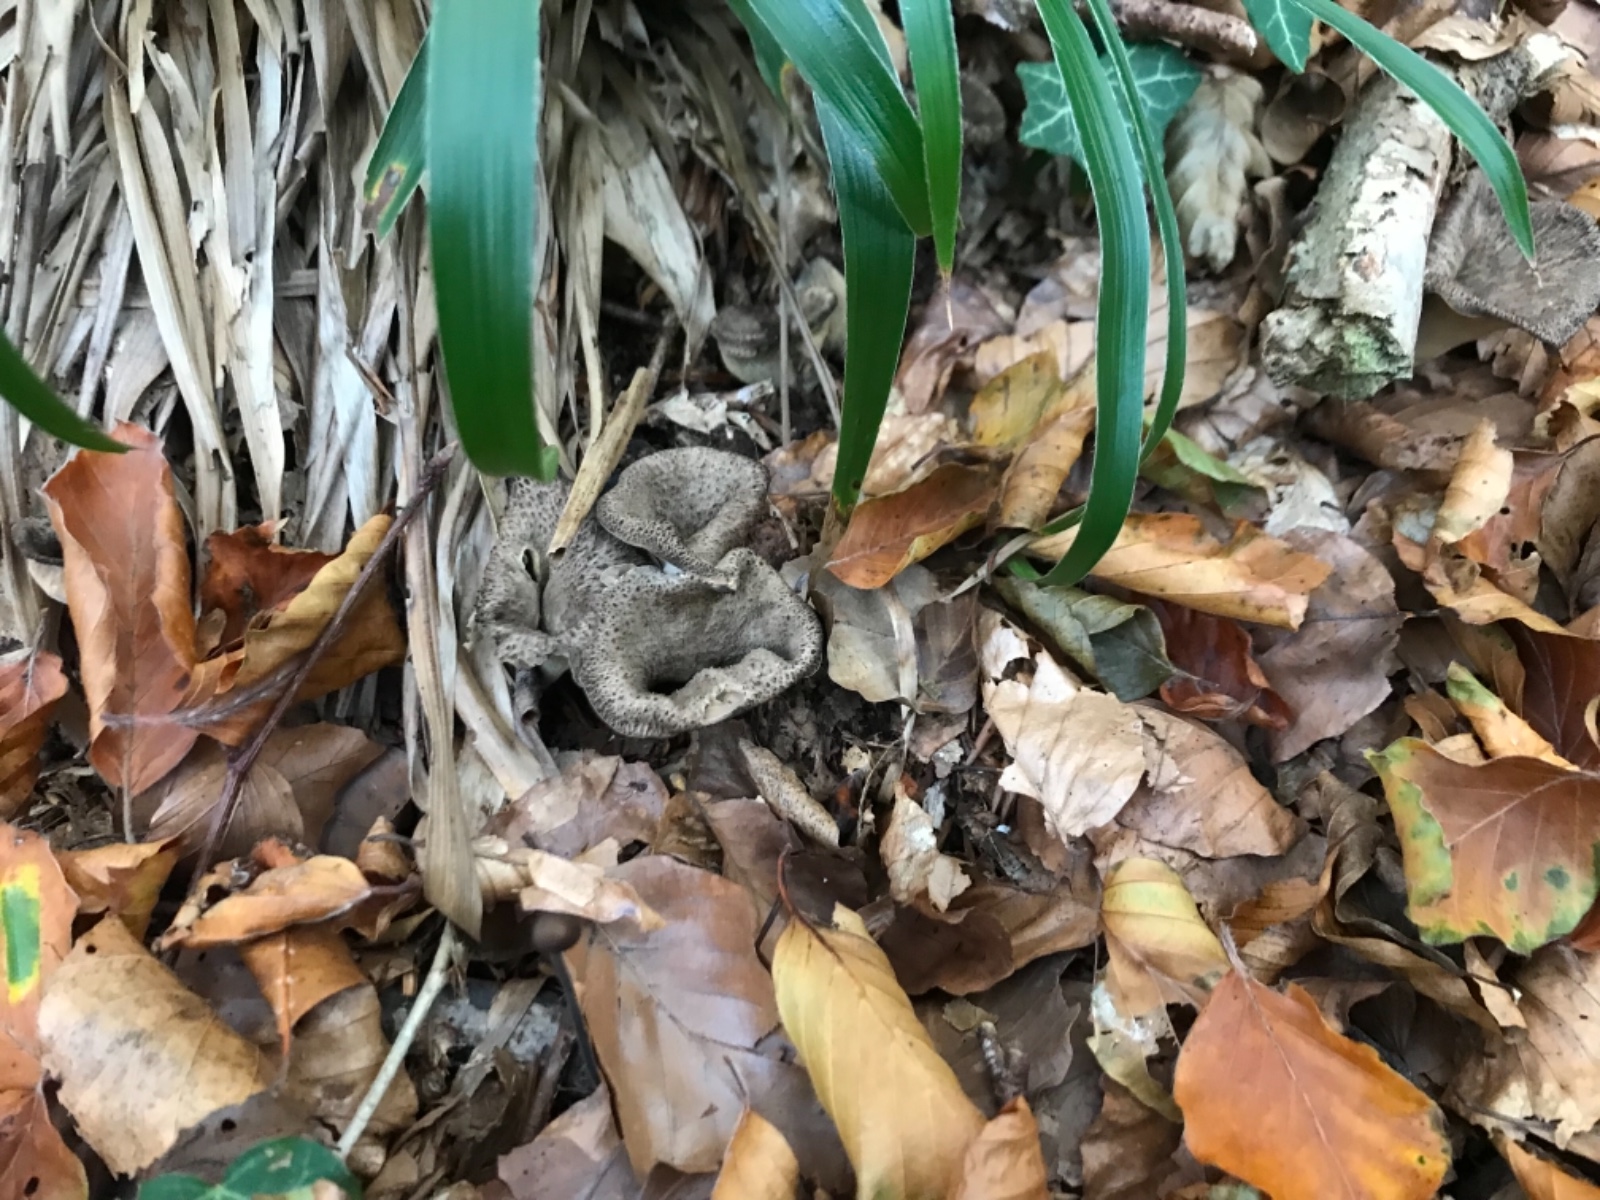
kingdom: Fungi
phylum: Basidiomycota
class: Agaricomycetes
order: Cantharellales
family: Hydnaceae
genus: Craterellus
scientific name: Craterellus cornucopioides
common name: trompetsvamp
